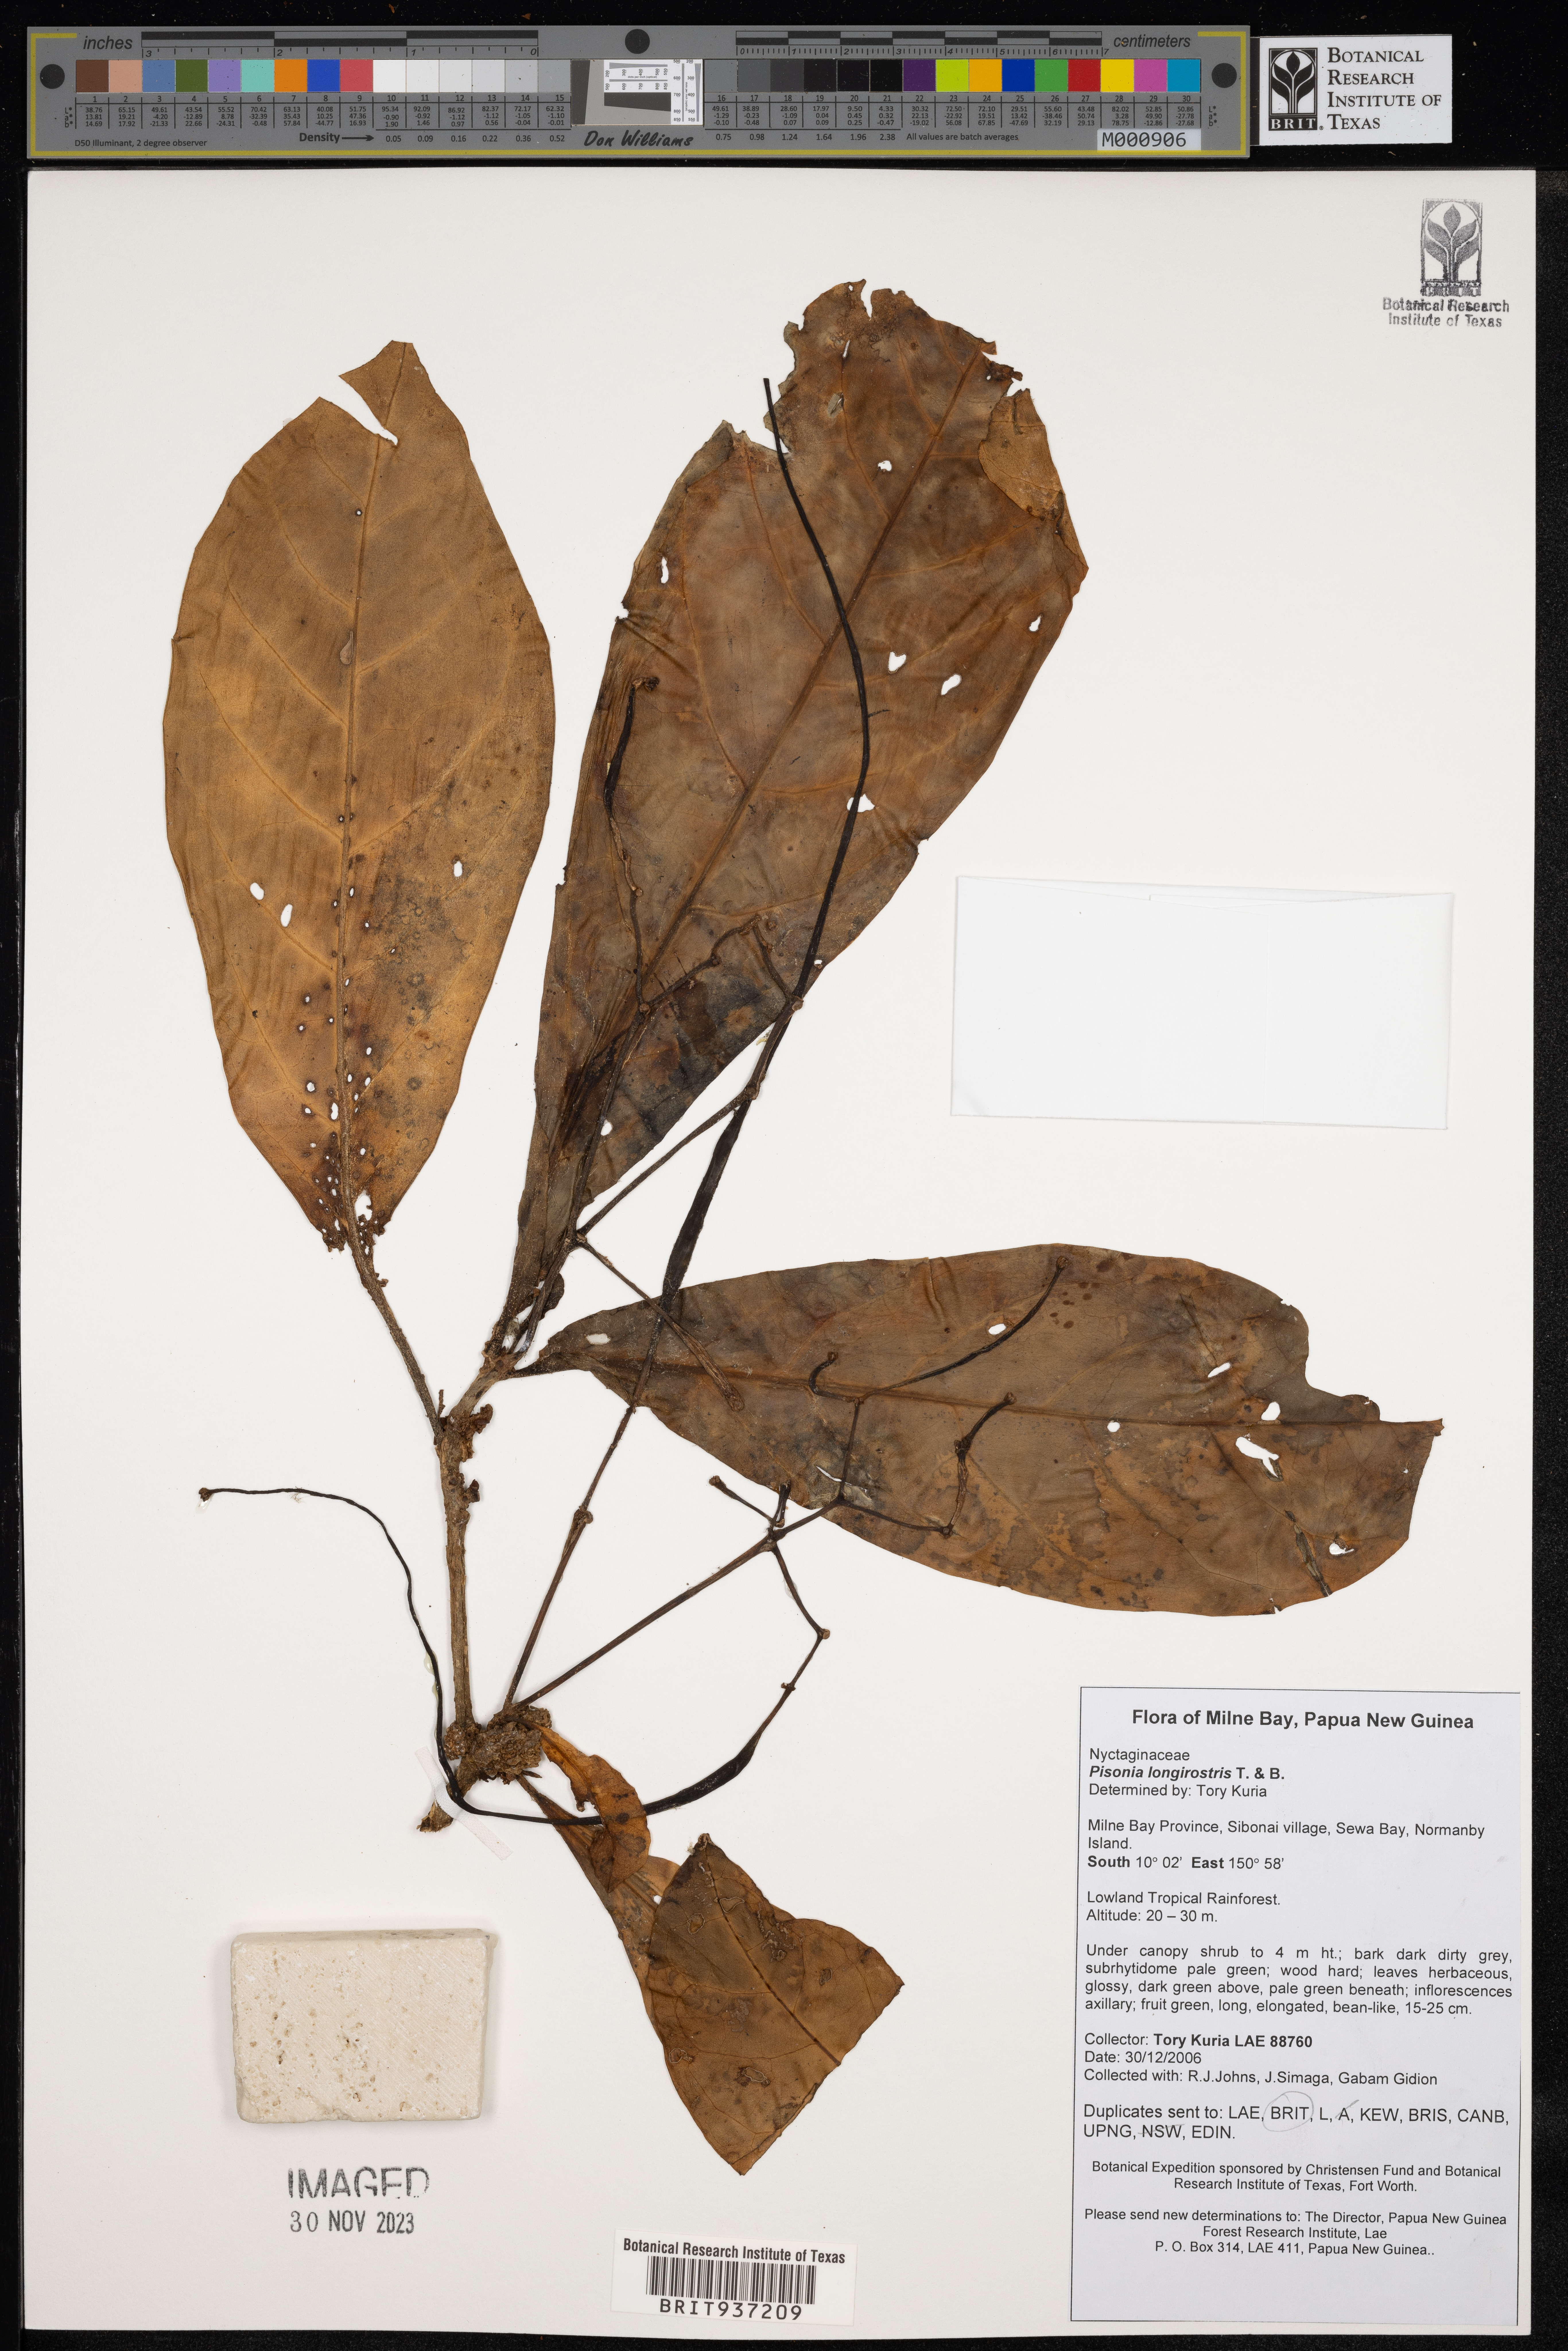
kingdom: Plantae
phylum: Tracheophyta
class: Magnoliopsida
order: Caryophyllales
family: Nyctaginaceae
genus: Pisonia
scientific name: Pisonia
